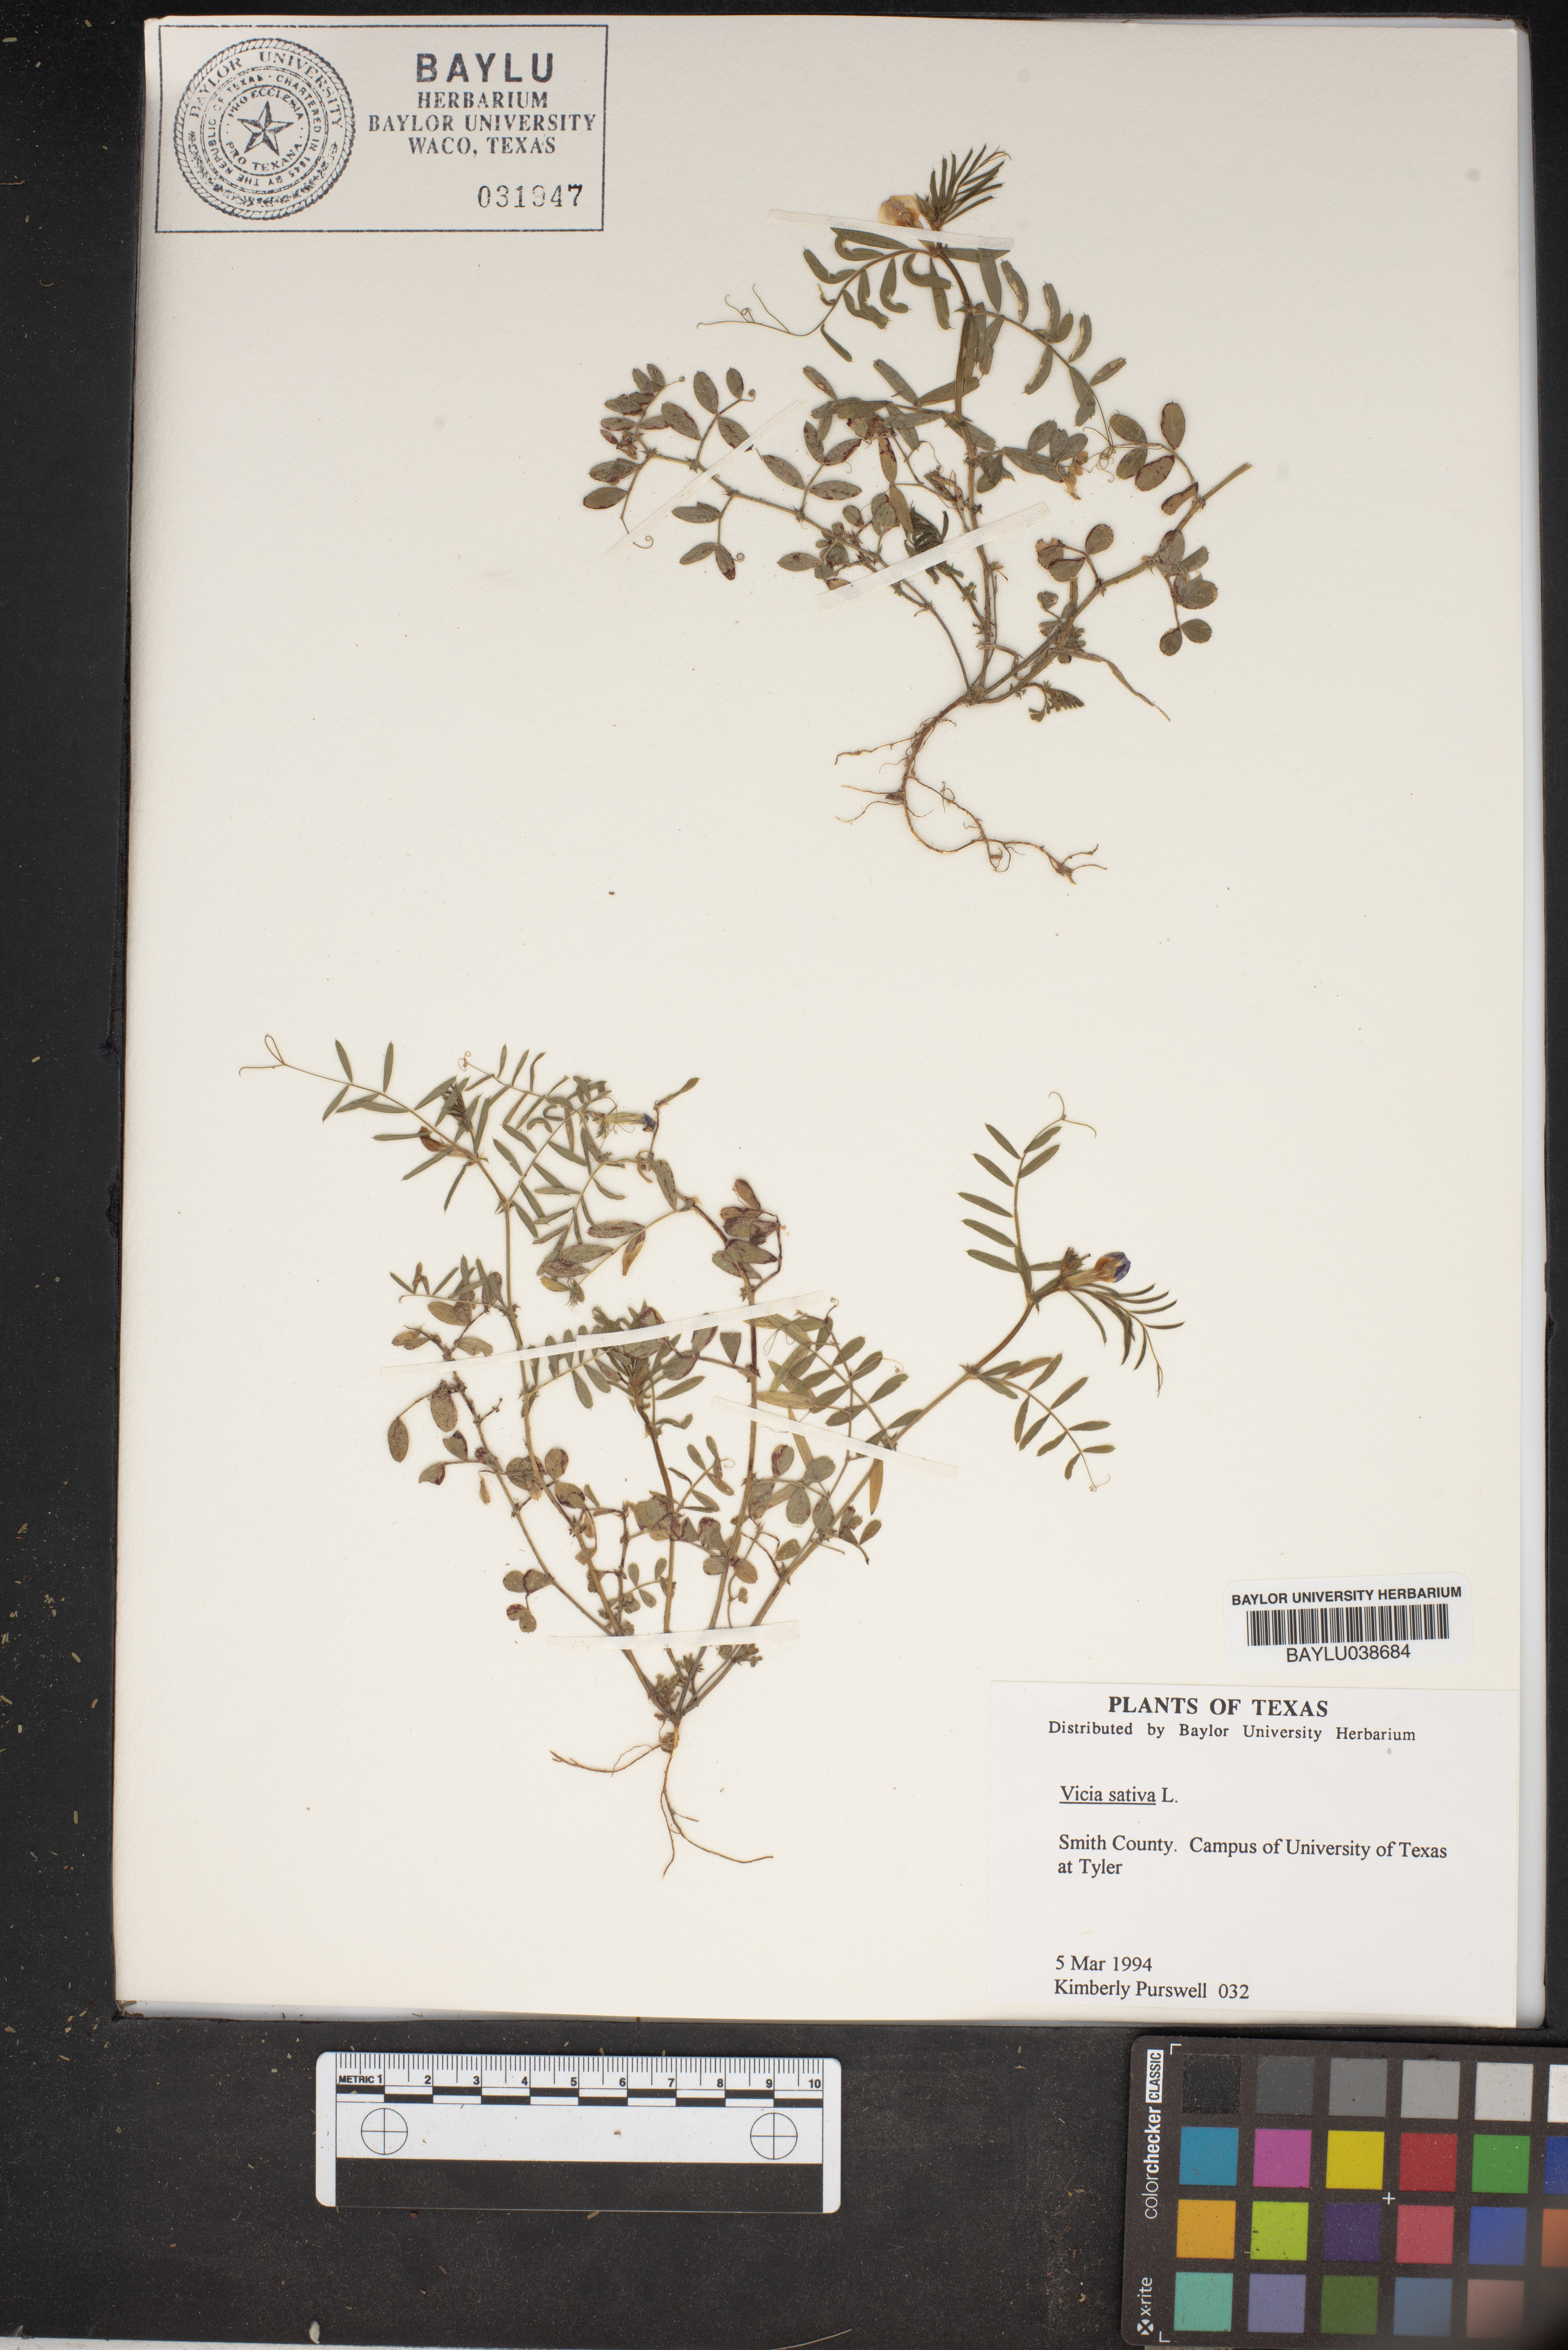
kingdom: Plantae
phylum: Tracheophyta
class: Magnoliopsida
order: Fabales
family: Fabaceae
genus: Vicia
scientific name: Vicia sativa
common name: Garden vetch
